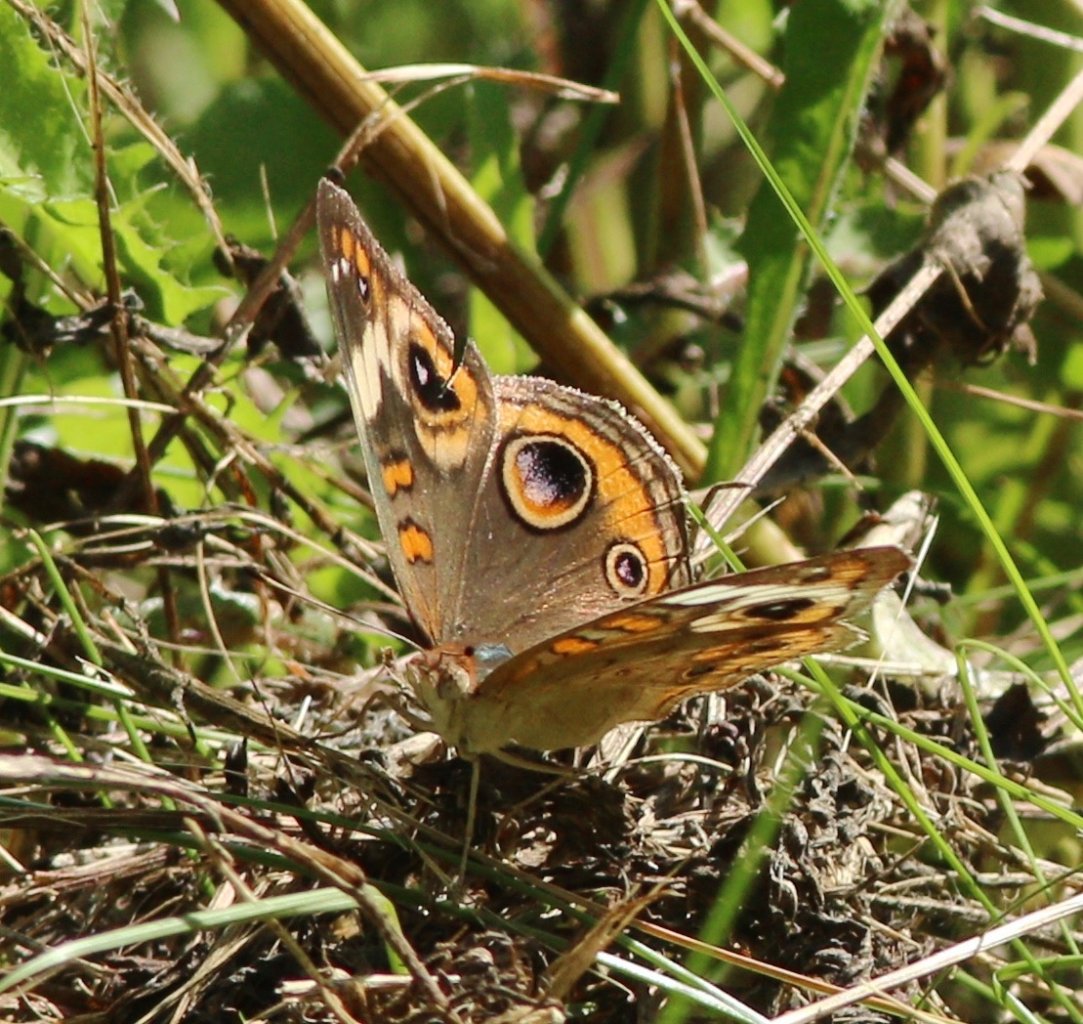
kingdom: Animalia
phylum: Arthropoda
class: Insecta
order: Lepidoptera
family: Nymphalidae
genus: Junonia
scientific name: Junonia coenia
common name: Common Buckeye
